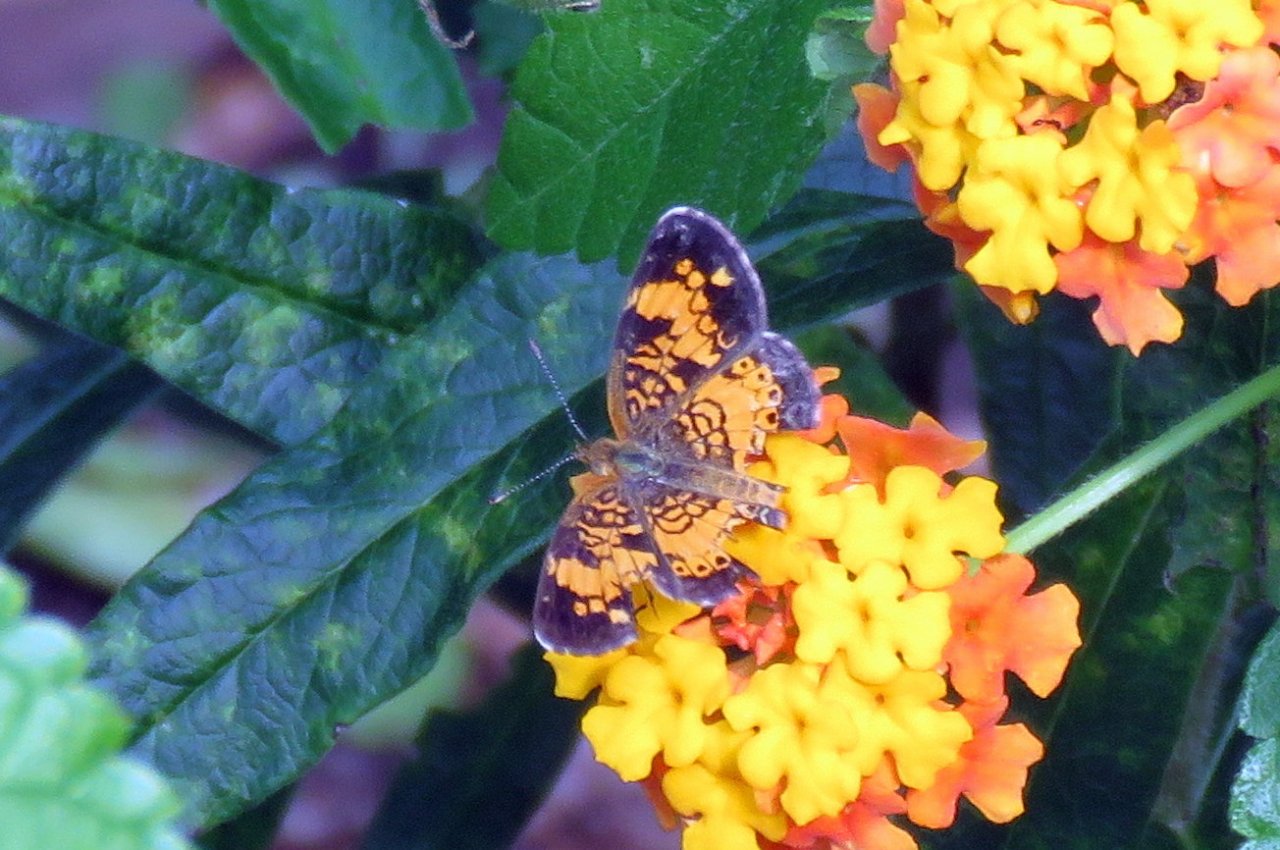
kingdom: Animalia
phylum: Arthropoda
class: Insecta
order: Lepidoptera
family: Nymphalidae
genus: Phyciodes
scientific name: Phyciodes tharos
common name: Pearl Crescent
